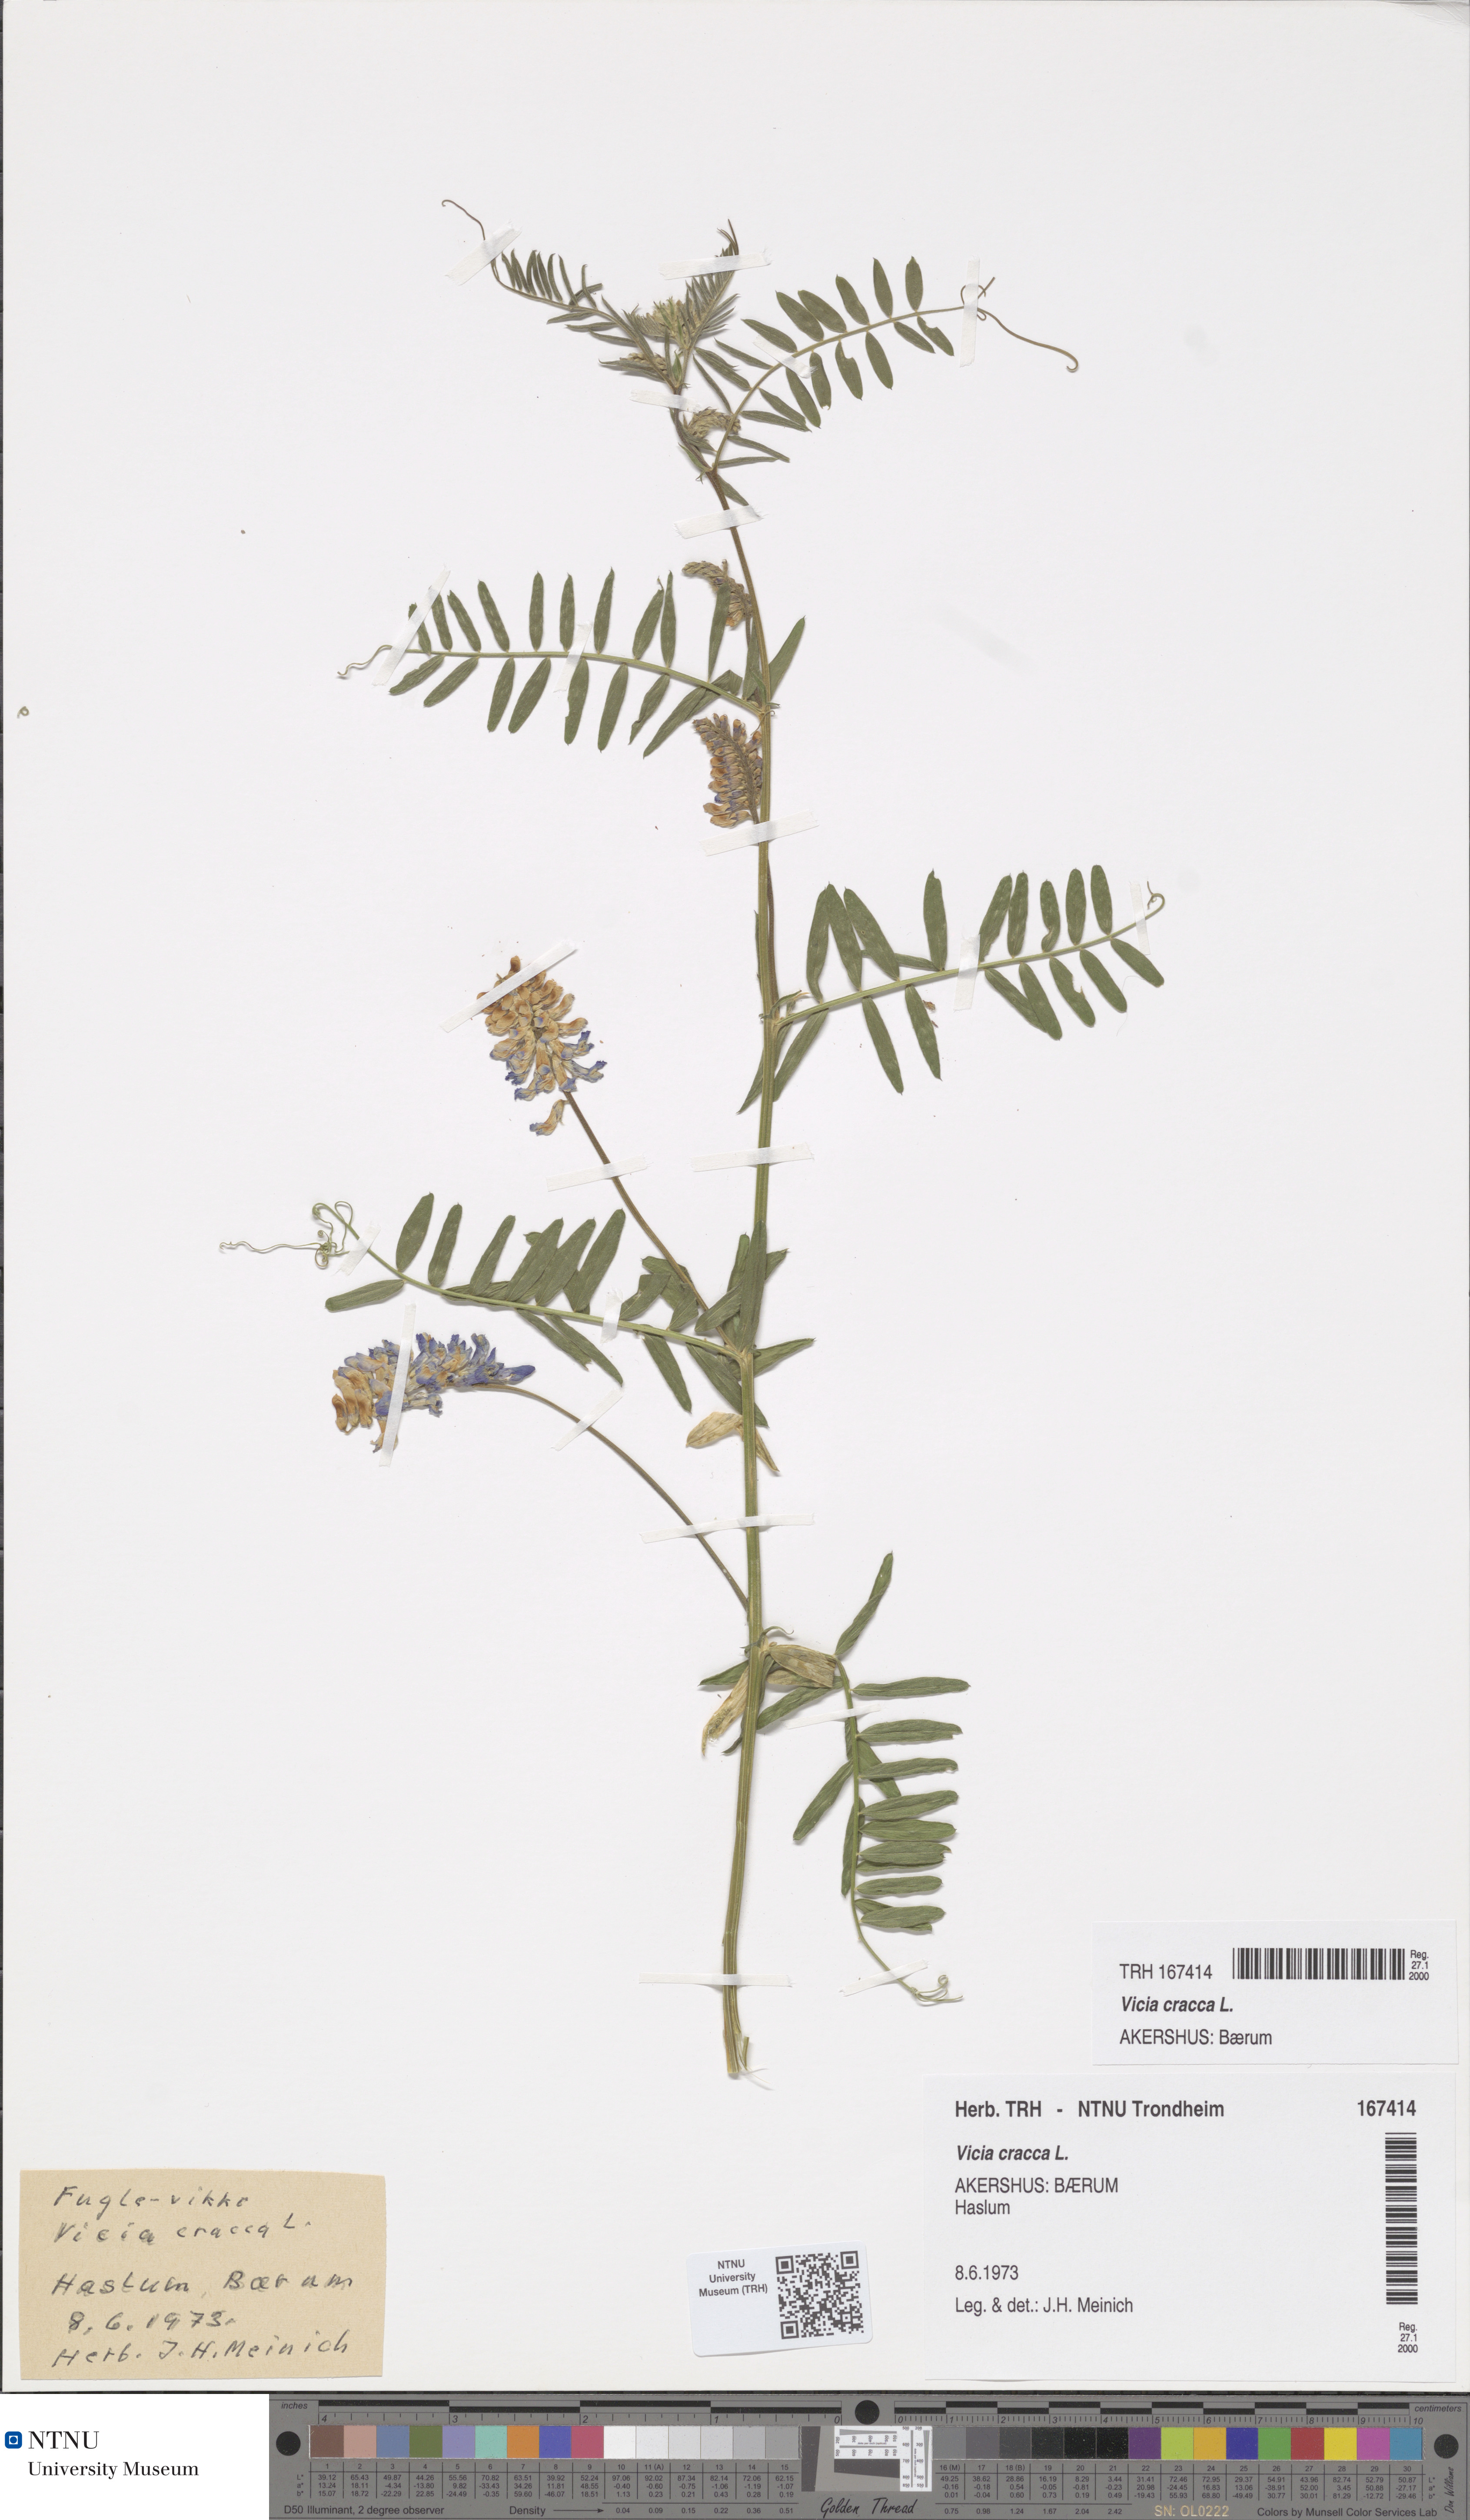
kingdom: Plantae
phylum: Tracheophyta
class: Magnoliopsida
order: Fabales
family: Fabaceae
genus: Vicia
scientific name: Vicia cracca
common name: Bird vetch
